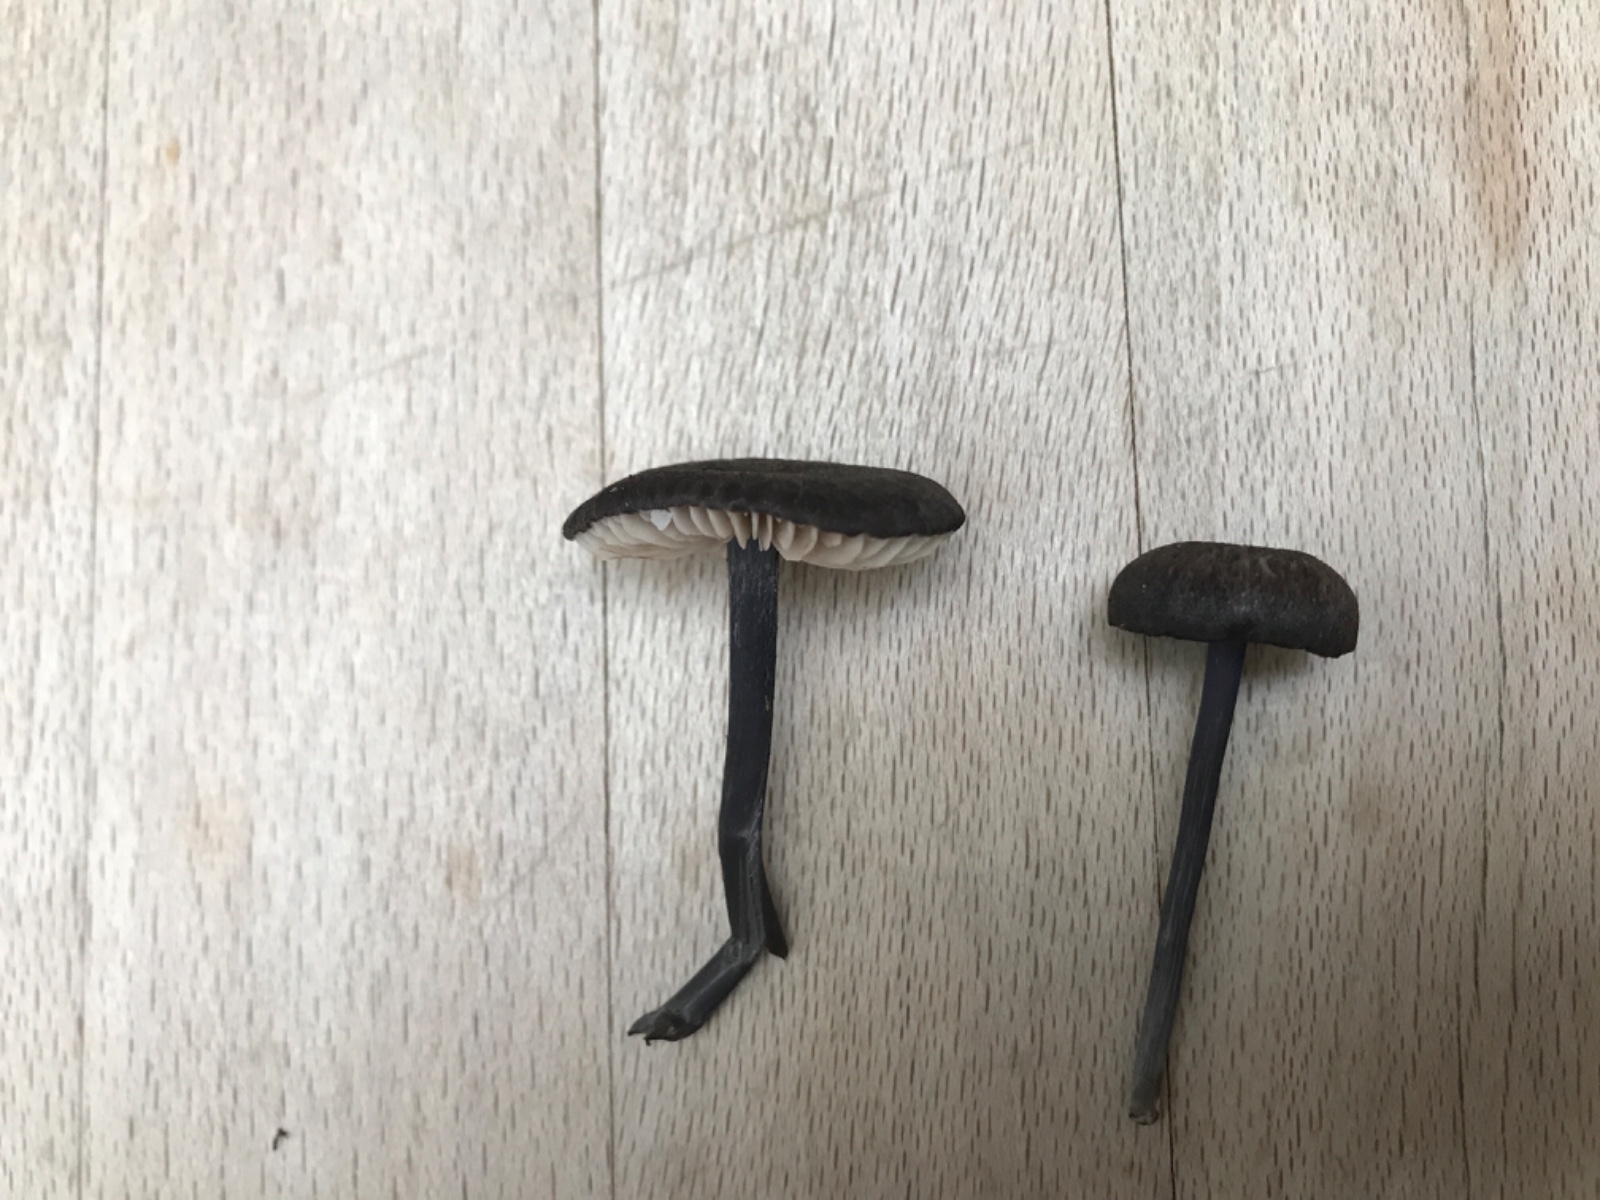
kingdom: Fungi
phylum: Basidiomycota
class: Agaricomycetes
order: Agaricales
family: Entolomataceae
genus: Entoloma
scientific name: Entoloma chalybeum
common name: blåbladet rødblad
